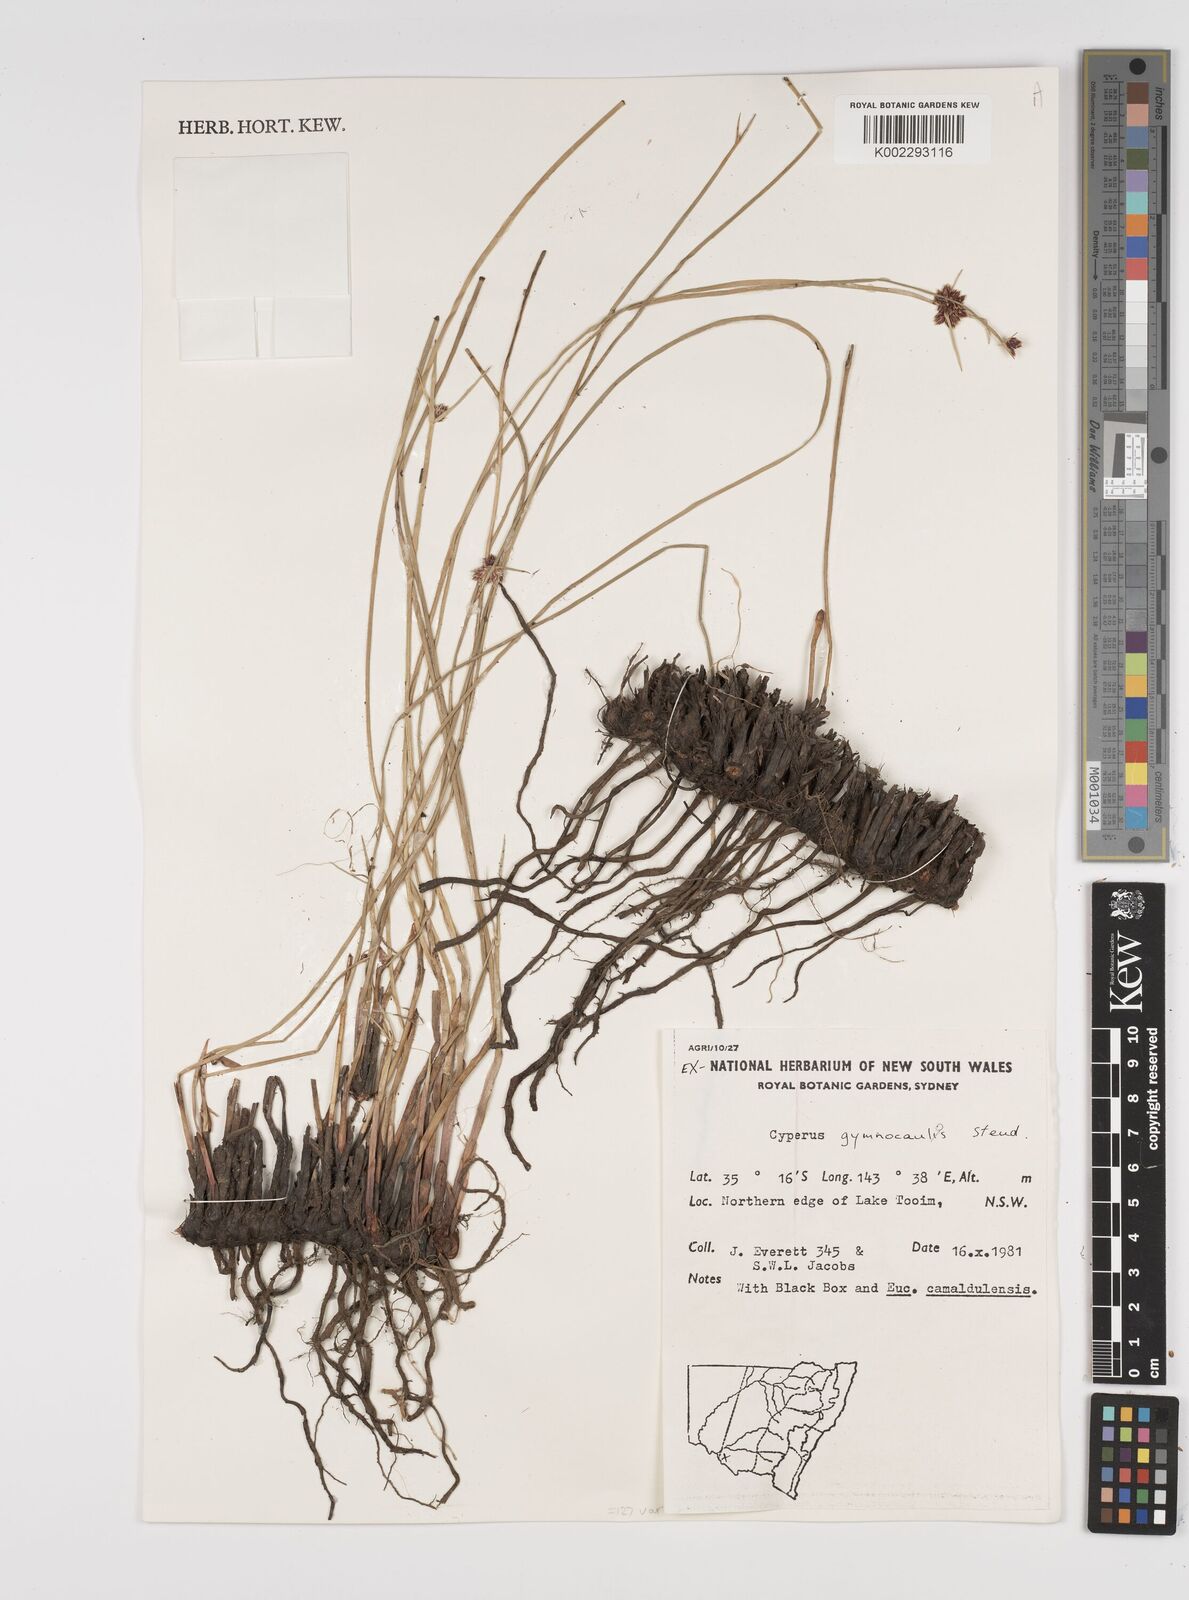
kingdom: Plantae
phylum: Tracheophyta
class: Liliopsida
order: Poales
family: Cyperaceae
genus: Cyperus
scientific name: Cyperus gymnocaulos
